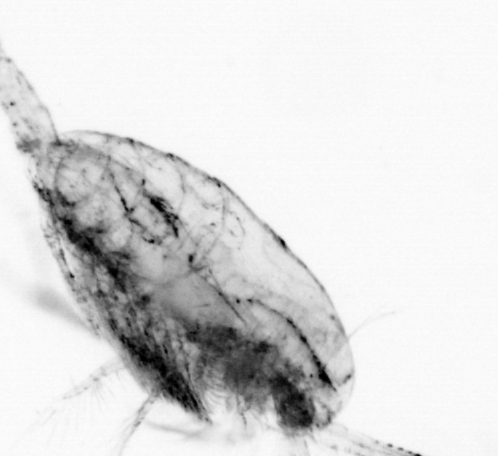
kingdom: Animalia
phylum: Arthropoda
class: Copepoda
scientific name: Copepoda
